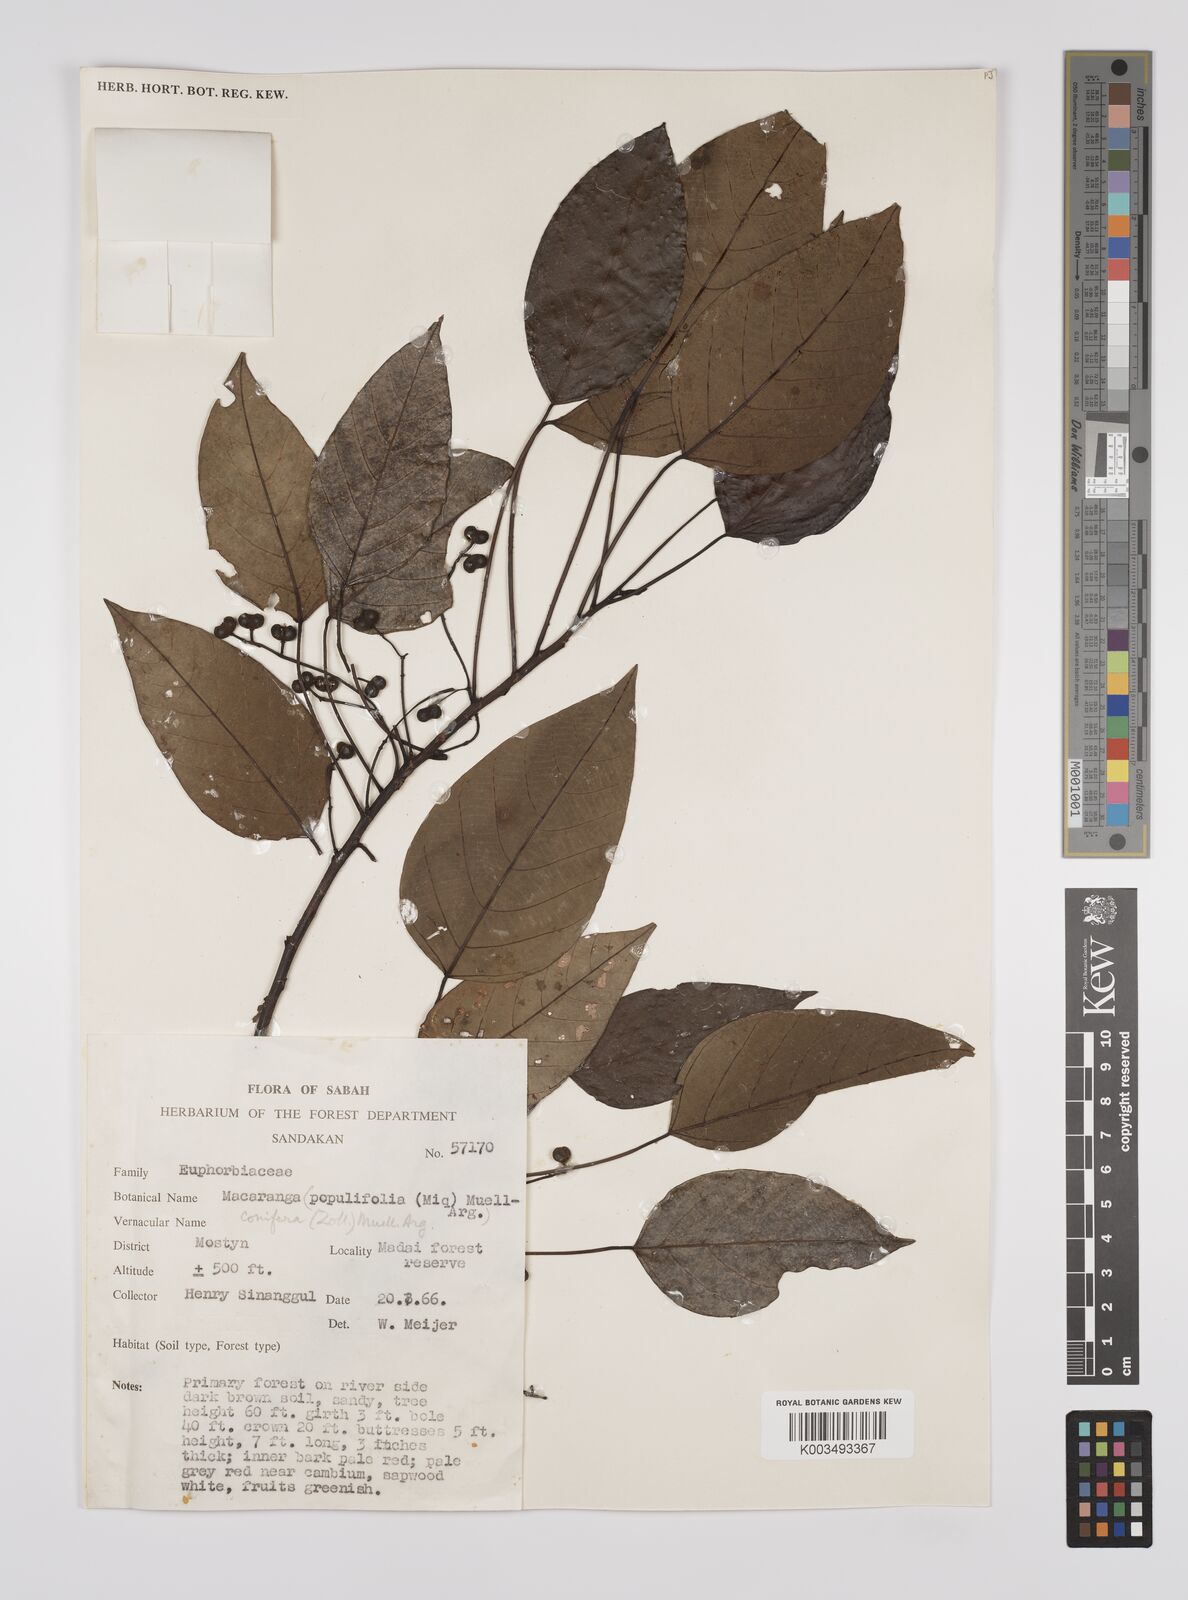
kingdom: Plantae
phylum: Tracheophyta
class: Magnoliopsida
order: Malpighiales
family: Euphorbiaceae
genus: Macaranga
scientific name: Macaranga conifera
